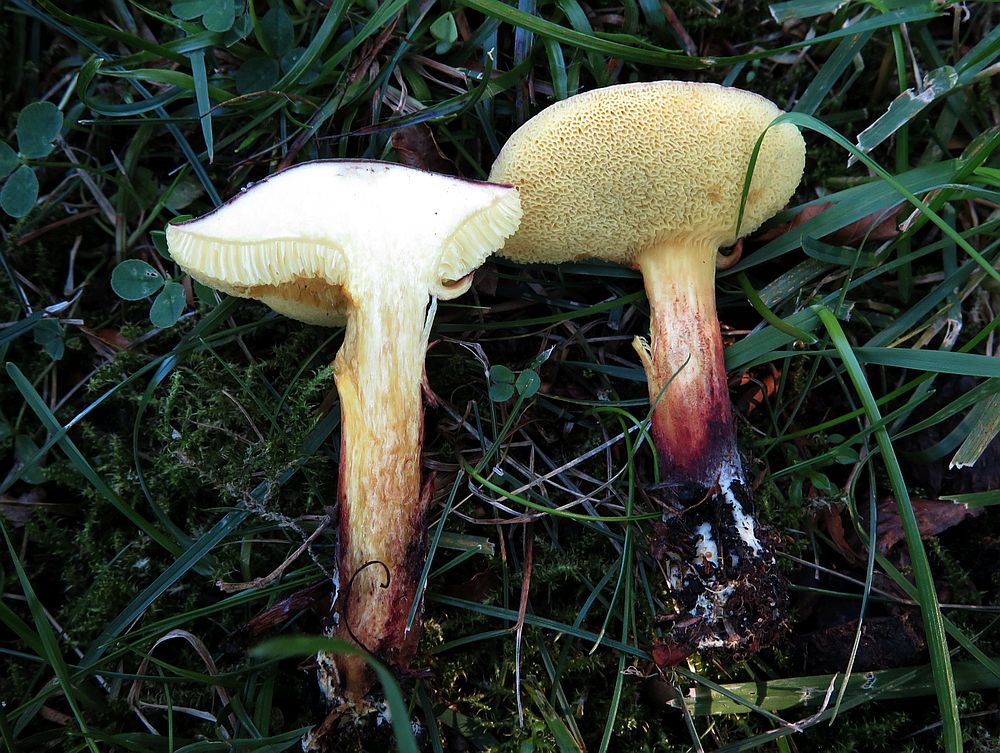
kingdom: Fungi
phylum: Basidiomycota
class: Agaricomycetes
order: Boletales
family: Boletaceae
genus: Xerocomellus
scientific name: Xerocomellus chrysenteron
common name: rødsprukken rørhat
